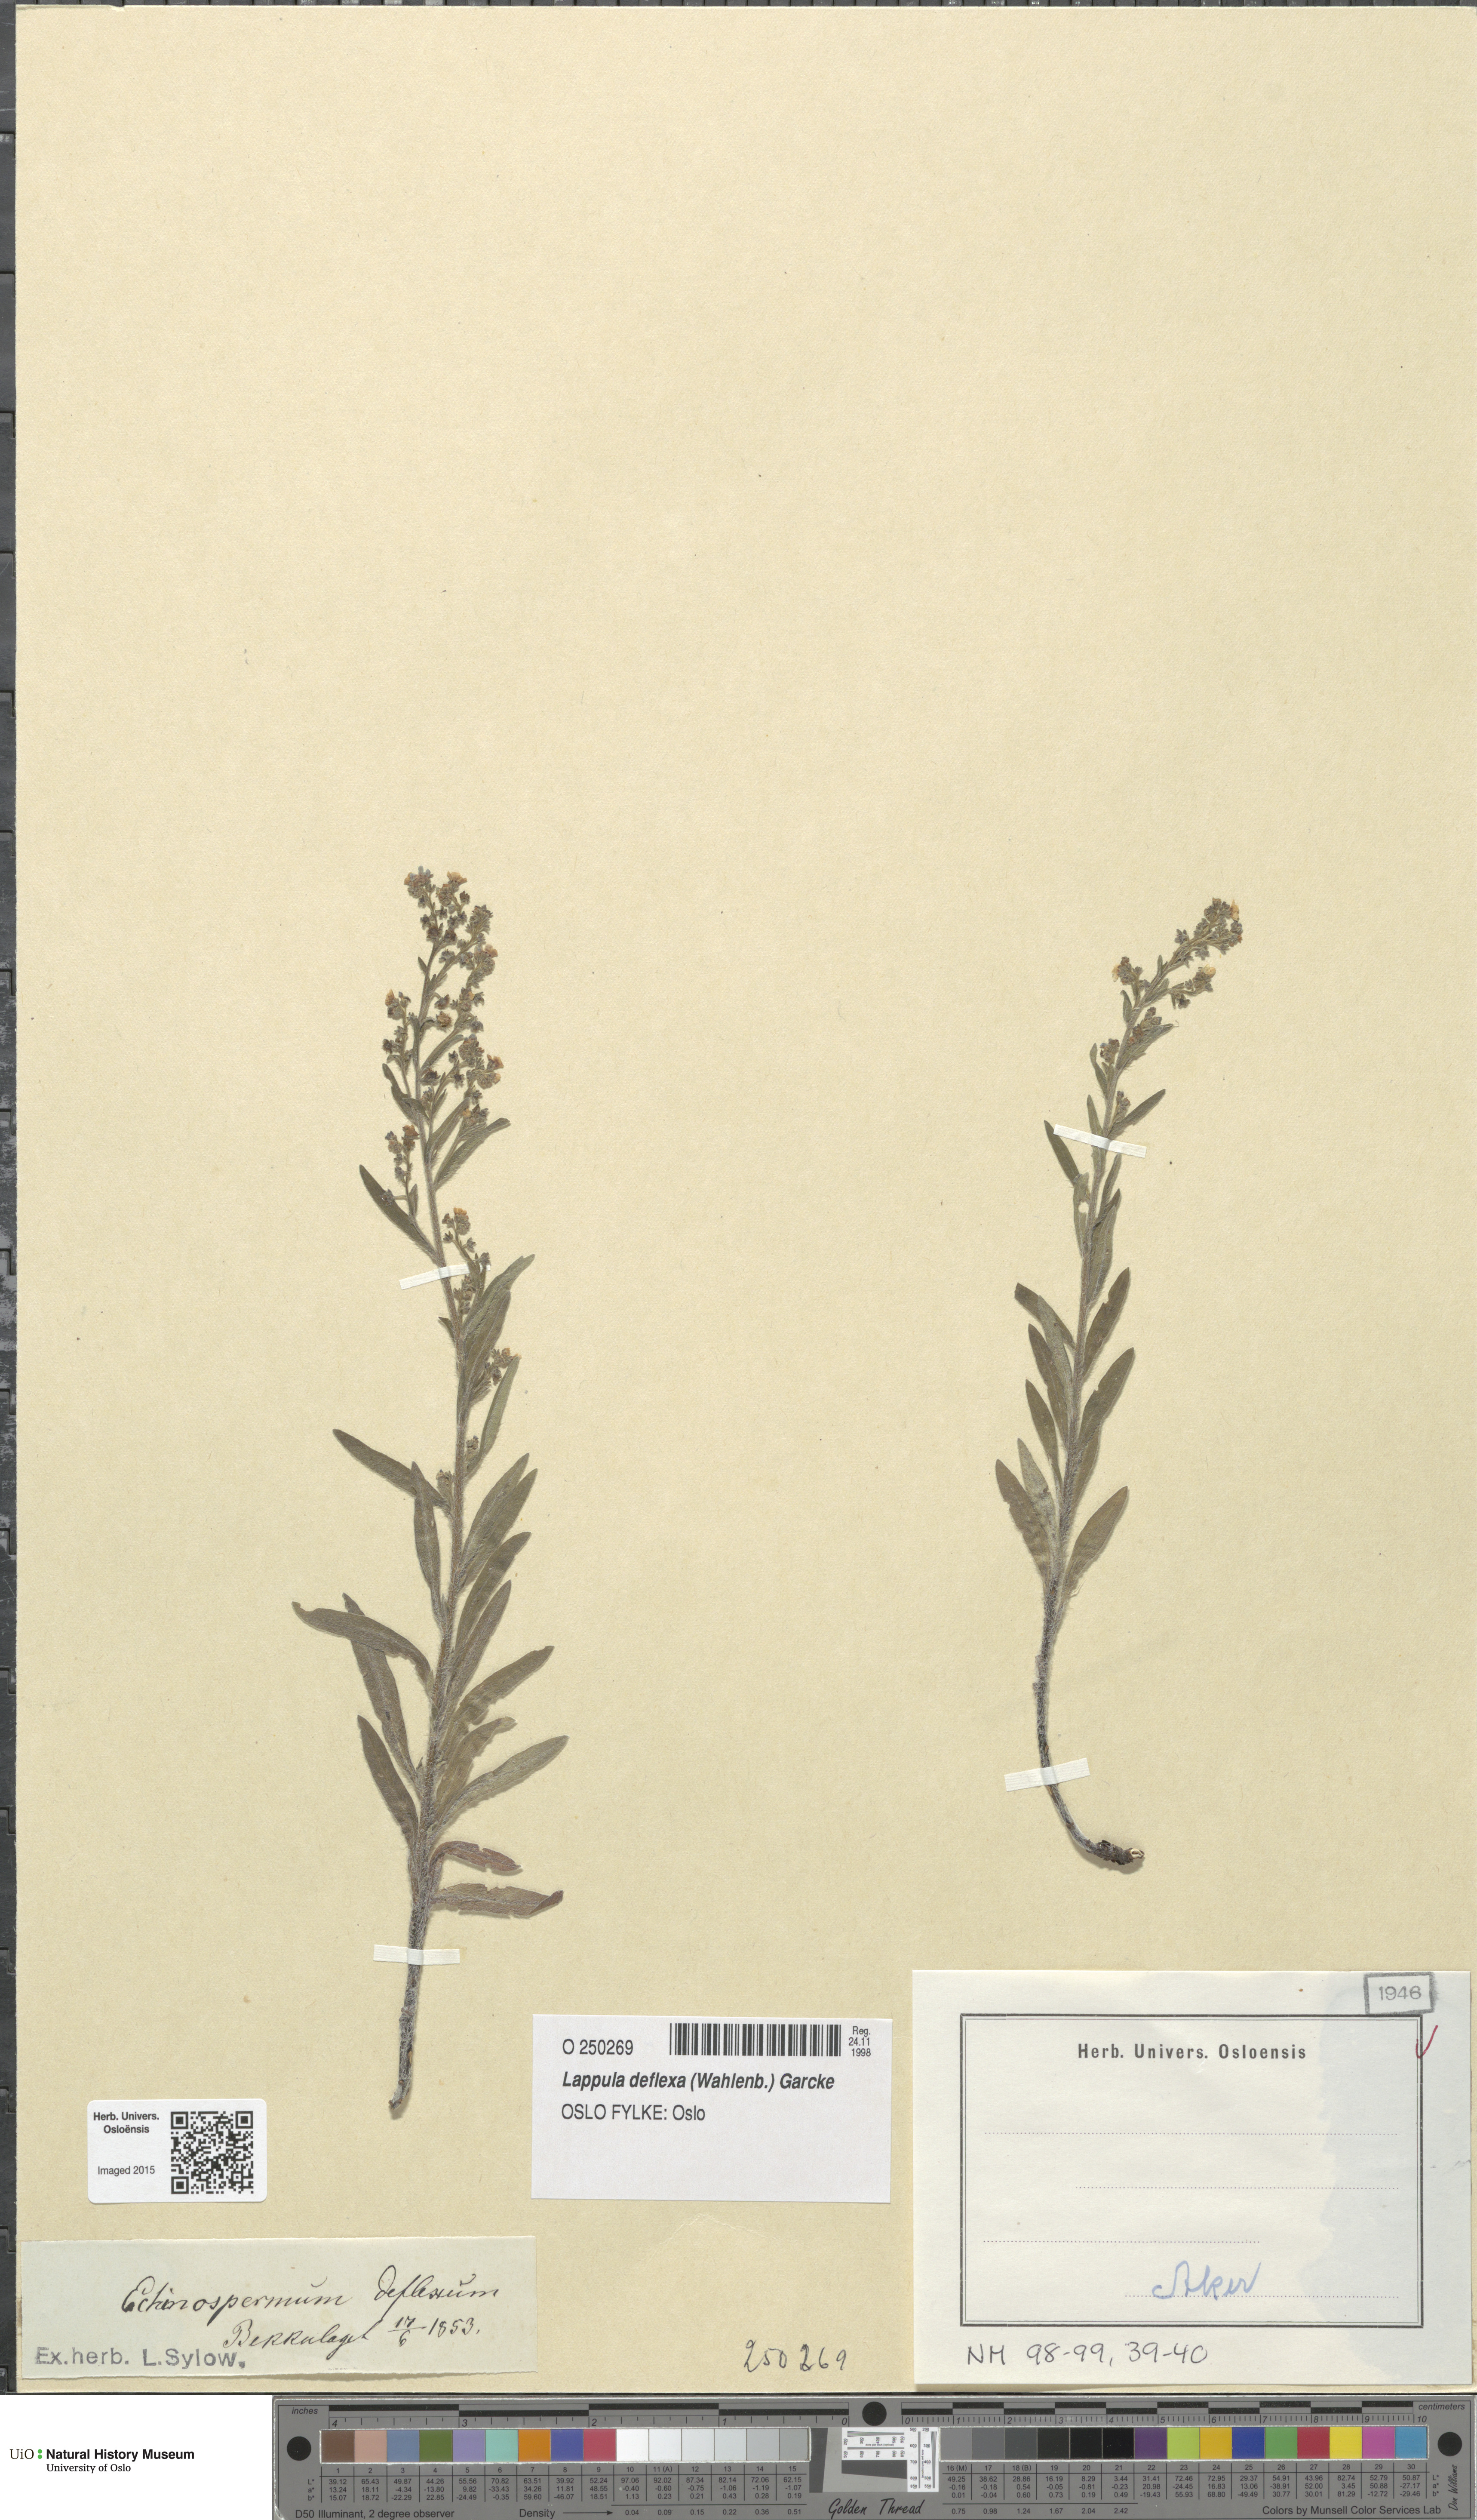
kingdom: Plantae
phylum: Tracheophyta
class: Magnoliopsida
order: Boraginales
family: Boraginaceae
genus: Hackelia
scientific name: Hackelia deflexa
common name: Nodding stickseed
